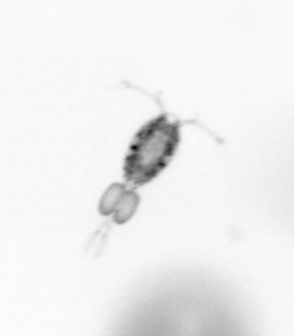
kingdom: Animalia
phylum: Arthropoda
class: Copepoda
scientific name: Copepoda
